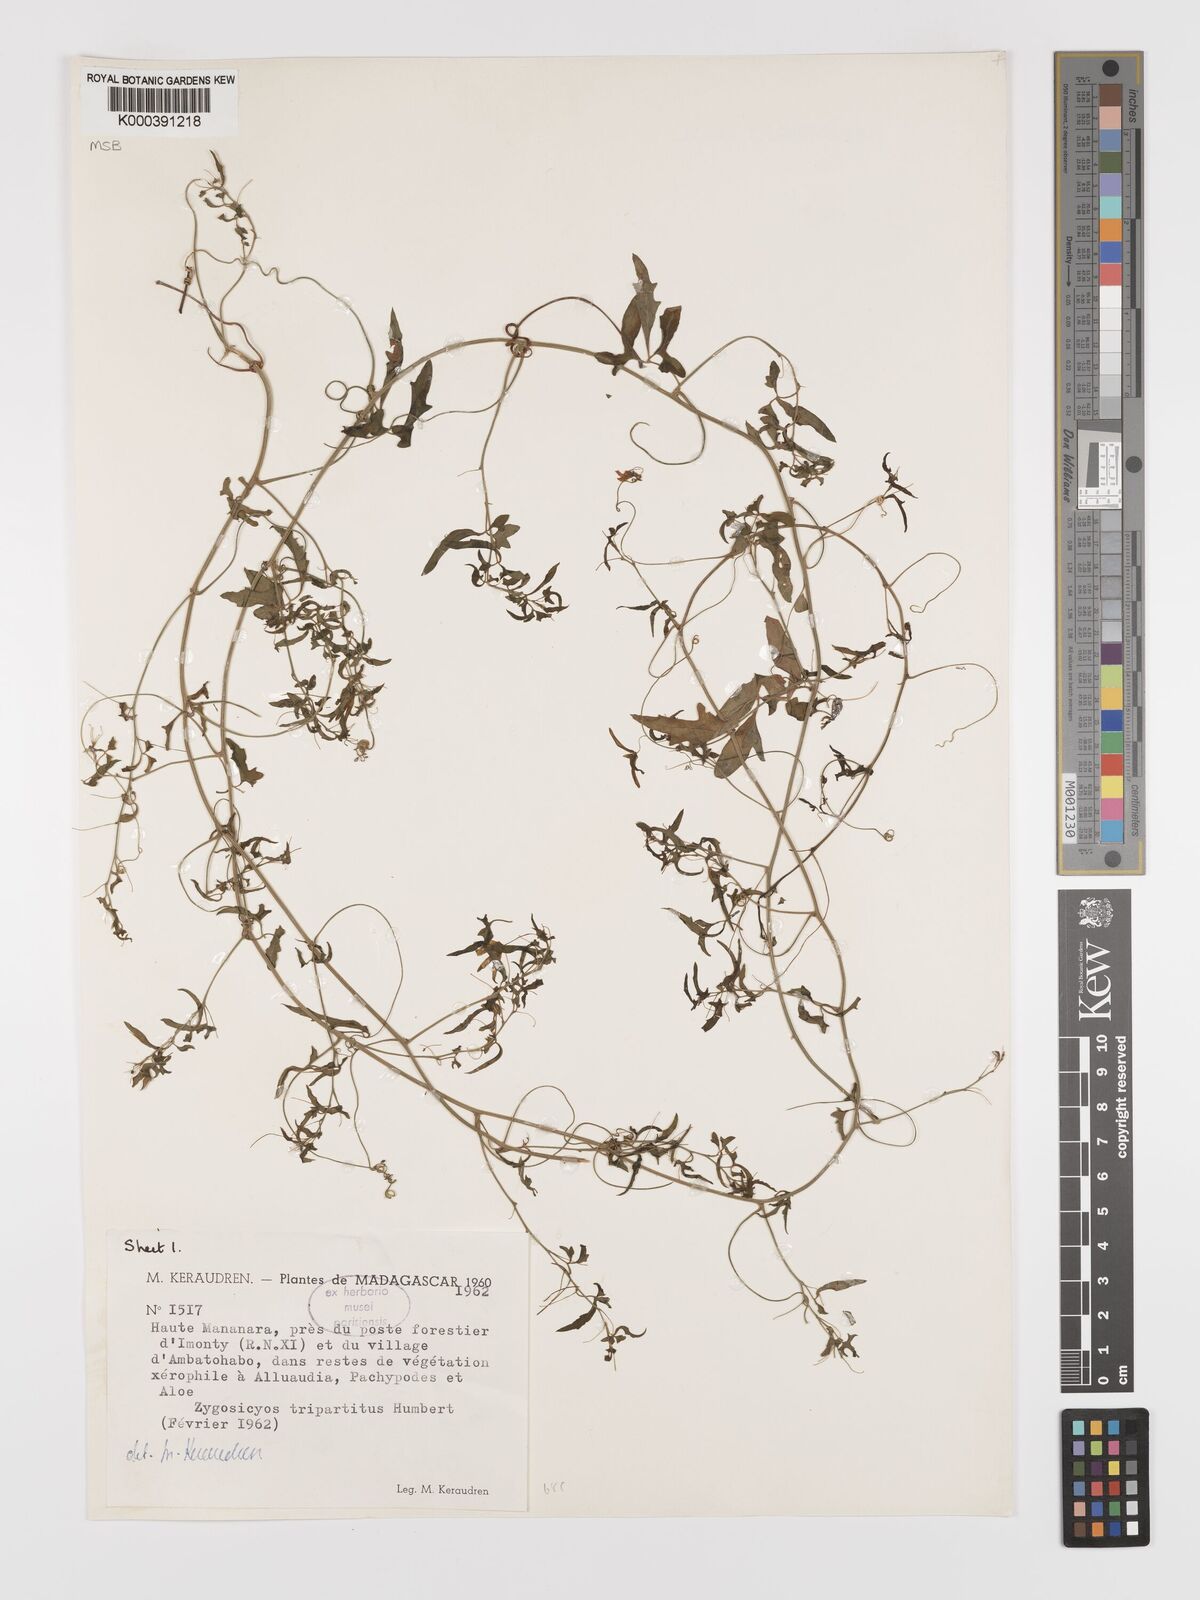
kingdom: Plantae
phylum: Tracheophyta
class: Magnoliopsida
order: Cucurbitales
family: Cucurbitaceae
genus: Xerosicyos
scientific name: Xerosicyos tripartitus
